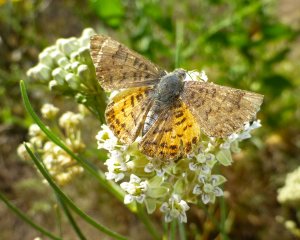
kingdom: Animalia
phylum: Arthropoda
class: Insecta
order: Lepidoptera
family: Lycaenidae
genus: Emesis
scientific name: Emesis zela
